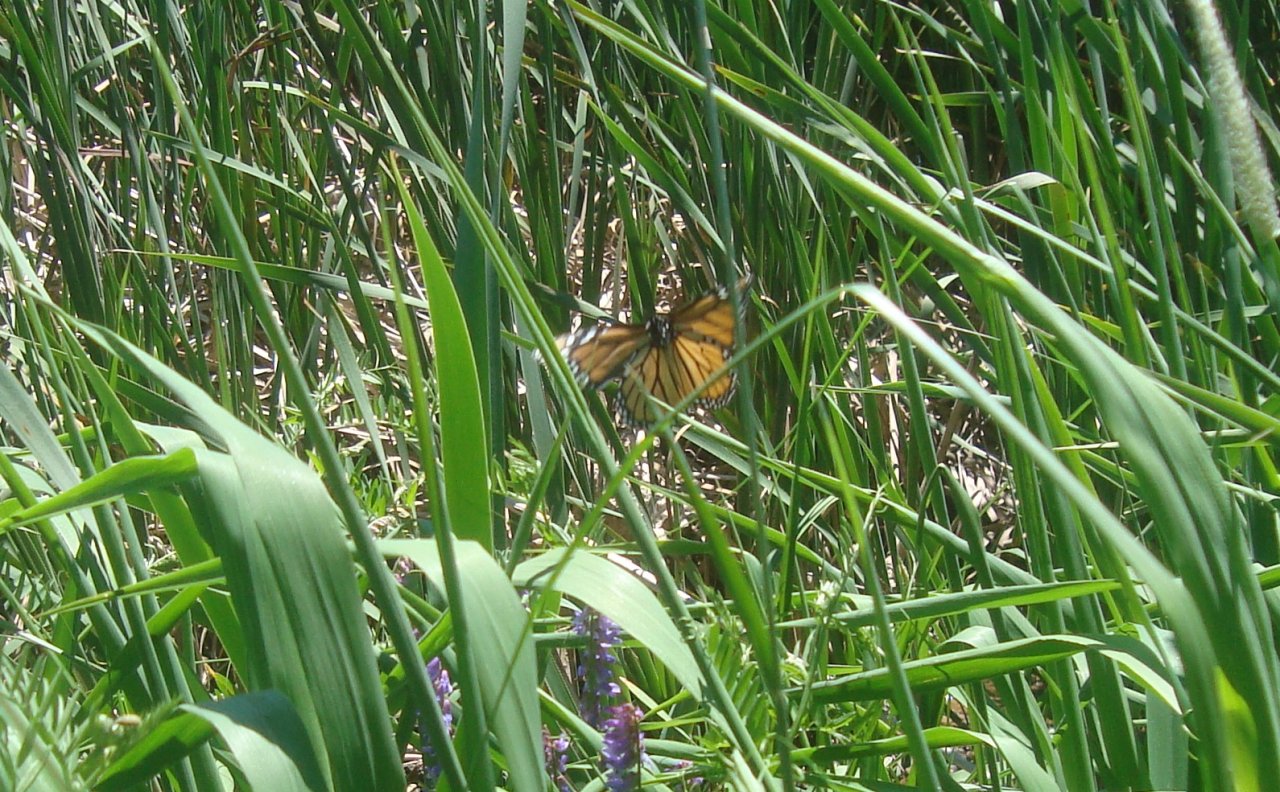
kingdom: Animalia
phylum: Arthropoda
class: Insecta
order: Lepidoptera
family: Nymphalidae
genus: Danaus
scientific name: Danaus plexippus
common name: Monarch
